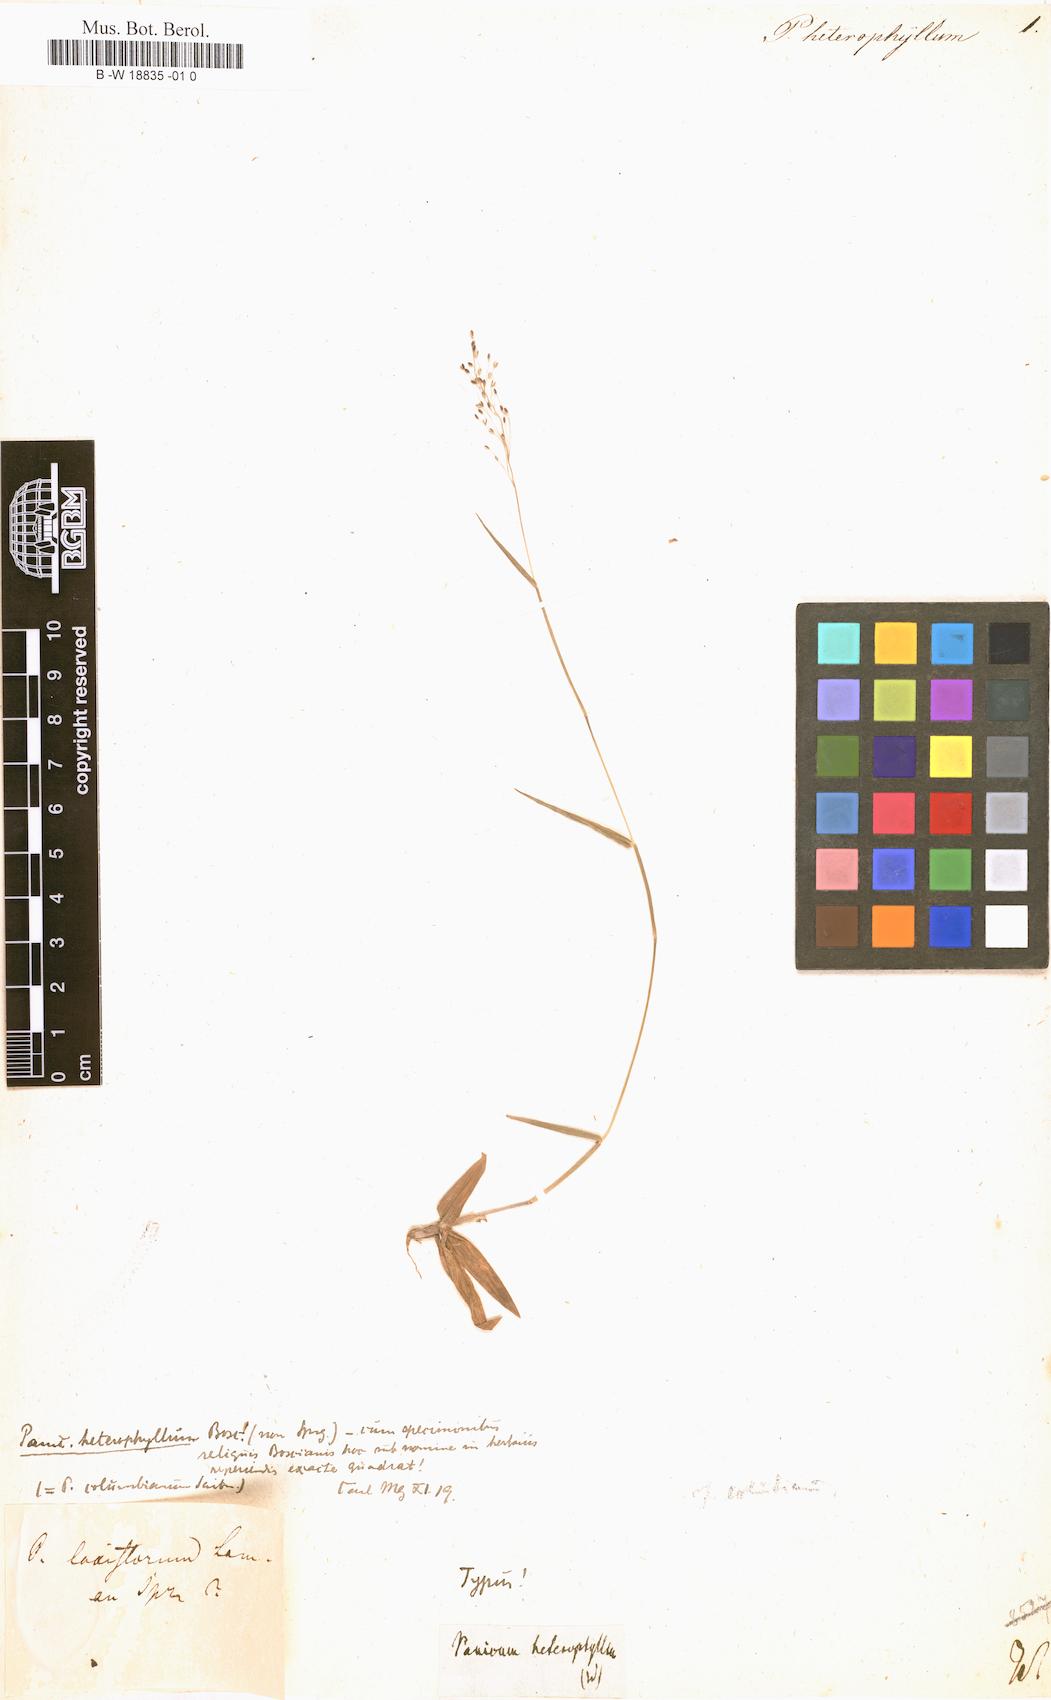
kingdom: Plantae
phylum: Tracheophyta
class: Liliopsida
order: Poales
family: Poaceae
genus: Rugoloa
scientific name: Rugoloa pilosa
